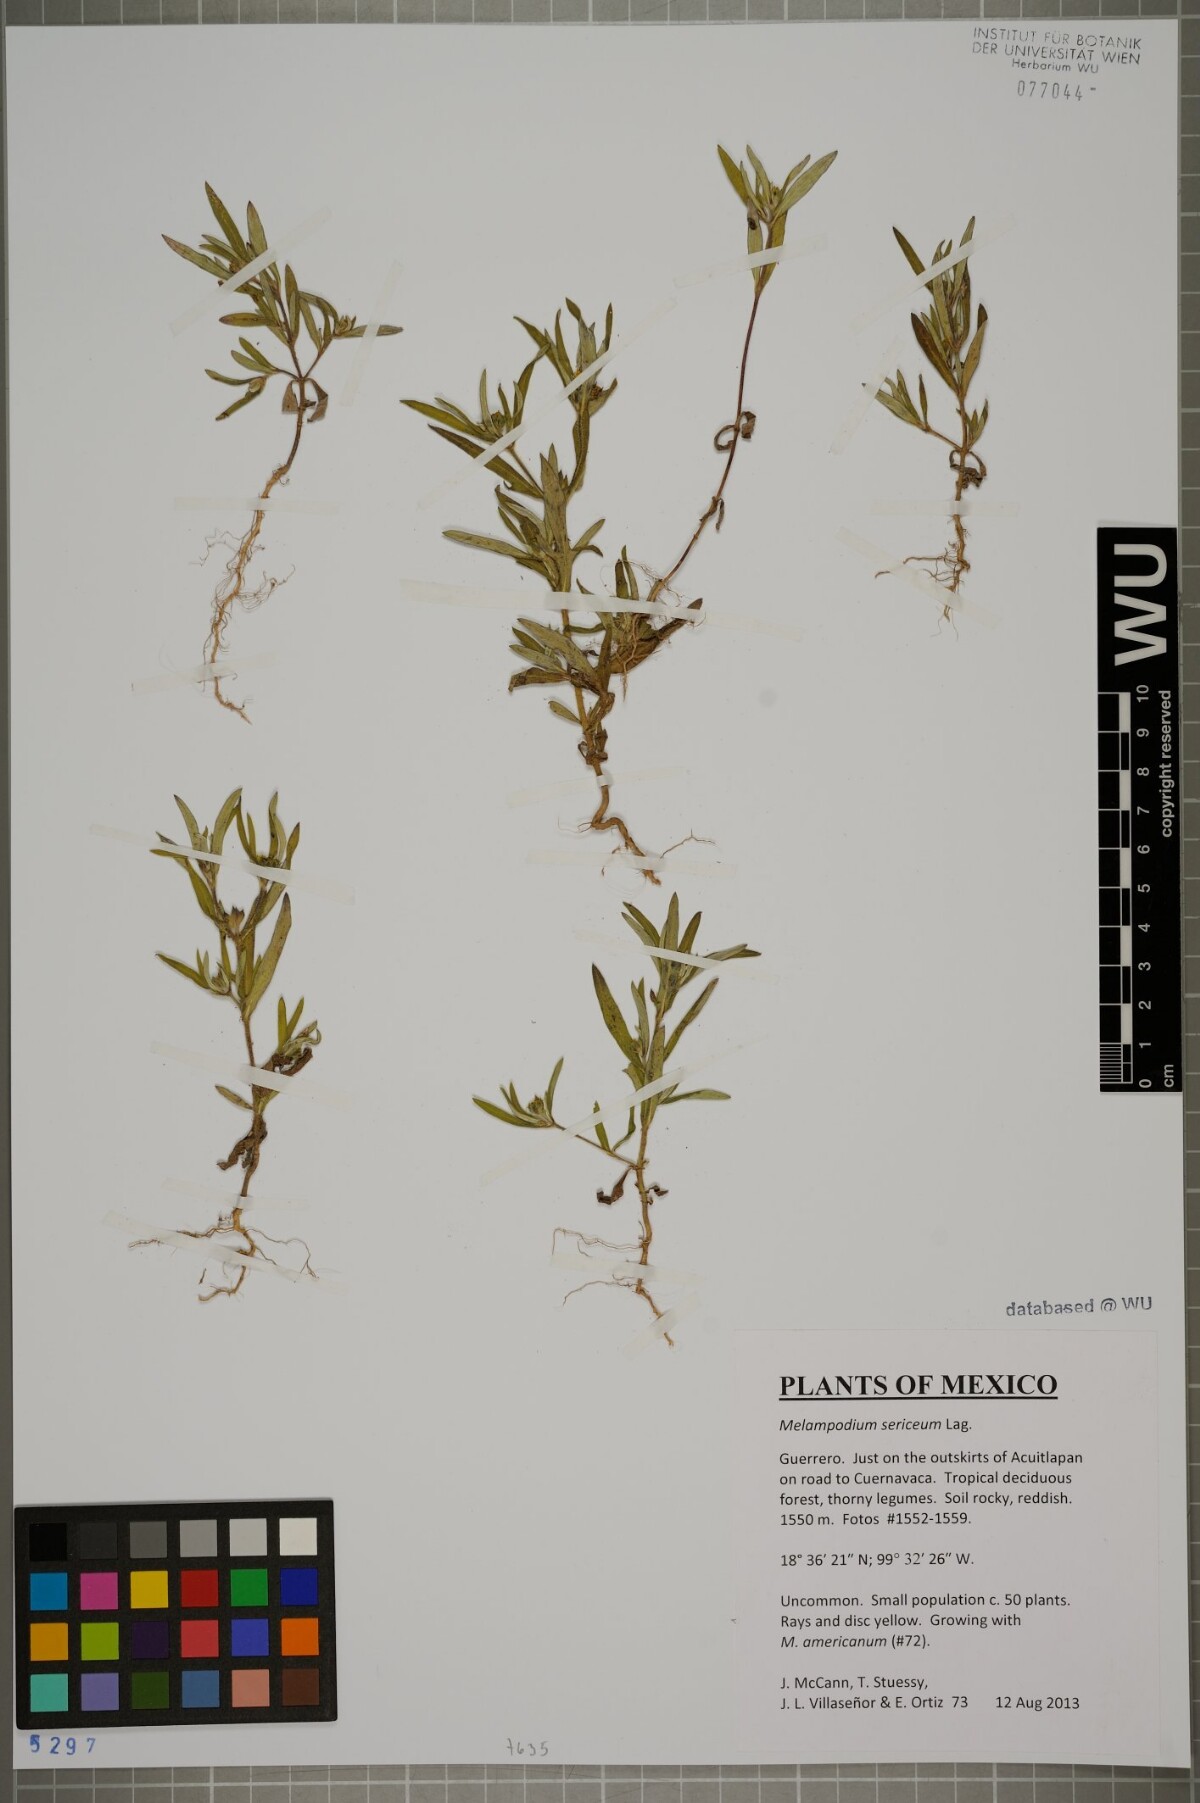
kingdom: Plantae
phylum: Tracheophyta
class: Magnoliopsida
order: Asterales
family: Asteraceae
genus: Melampodium
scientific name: Melampodium sericeum
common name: Rough blackfoot
